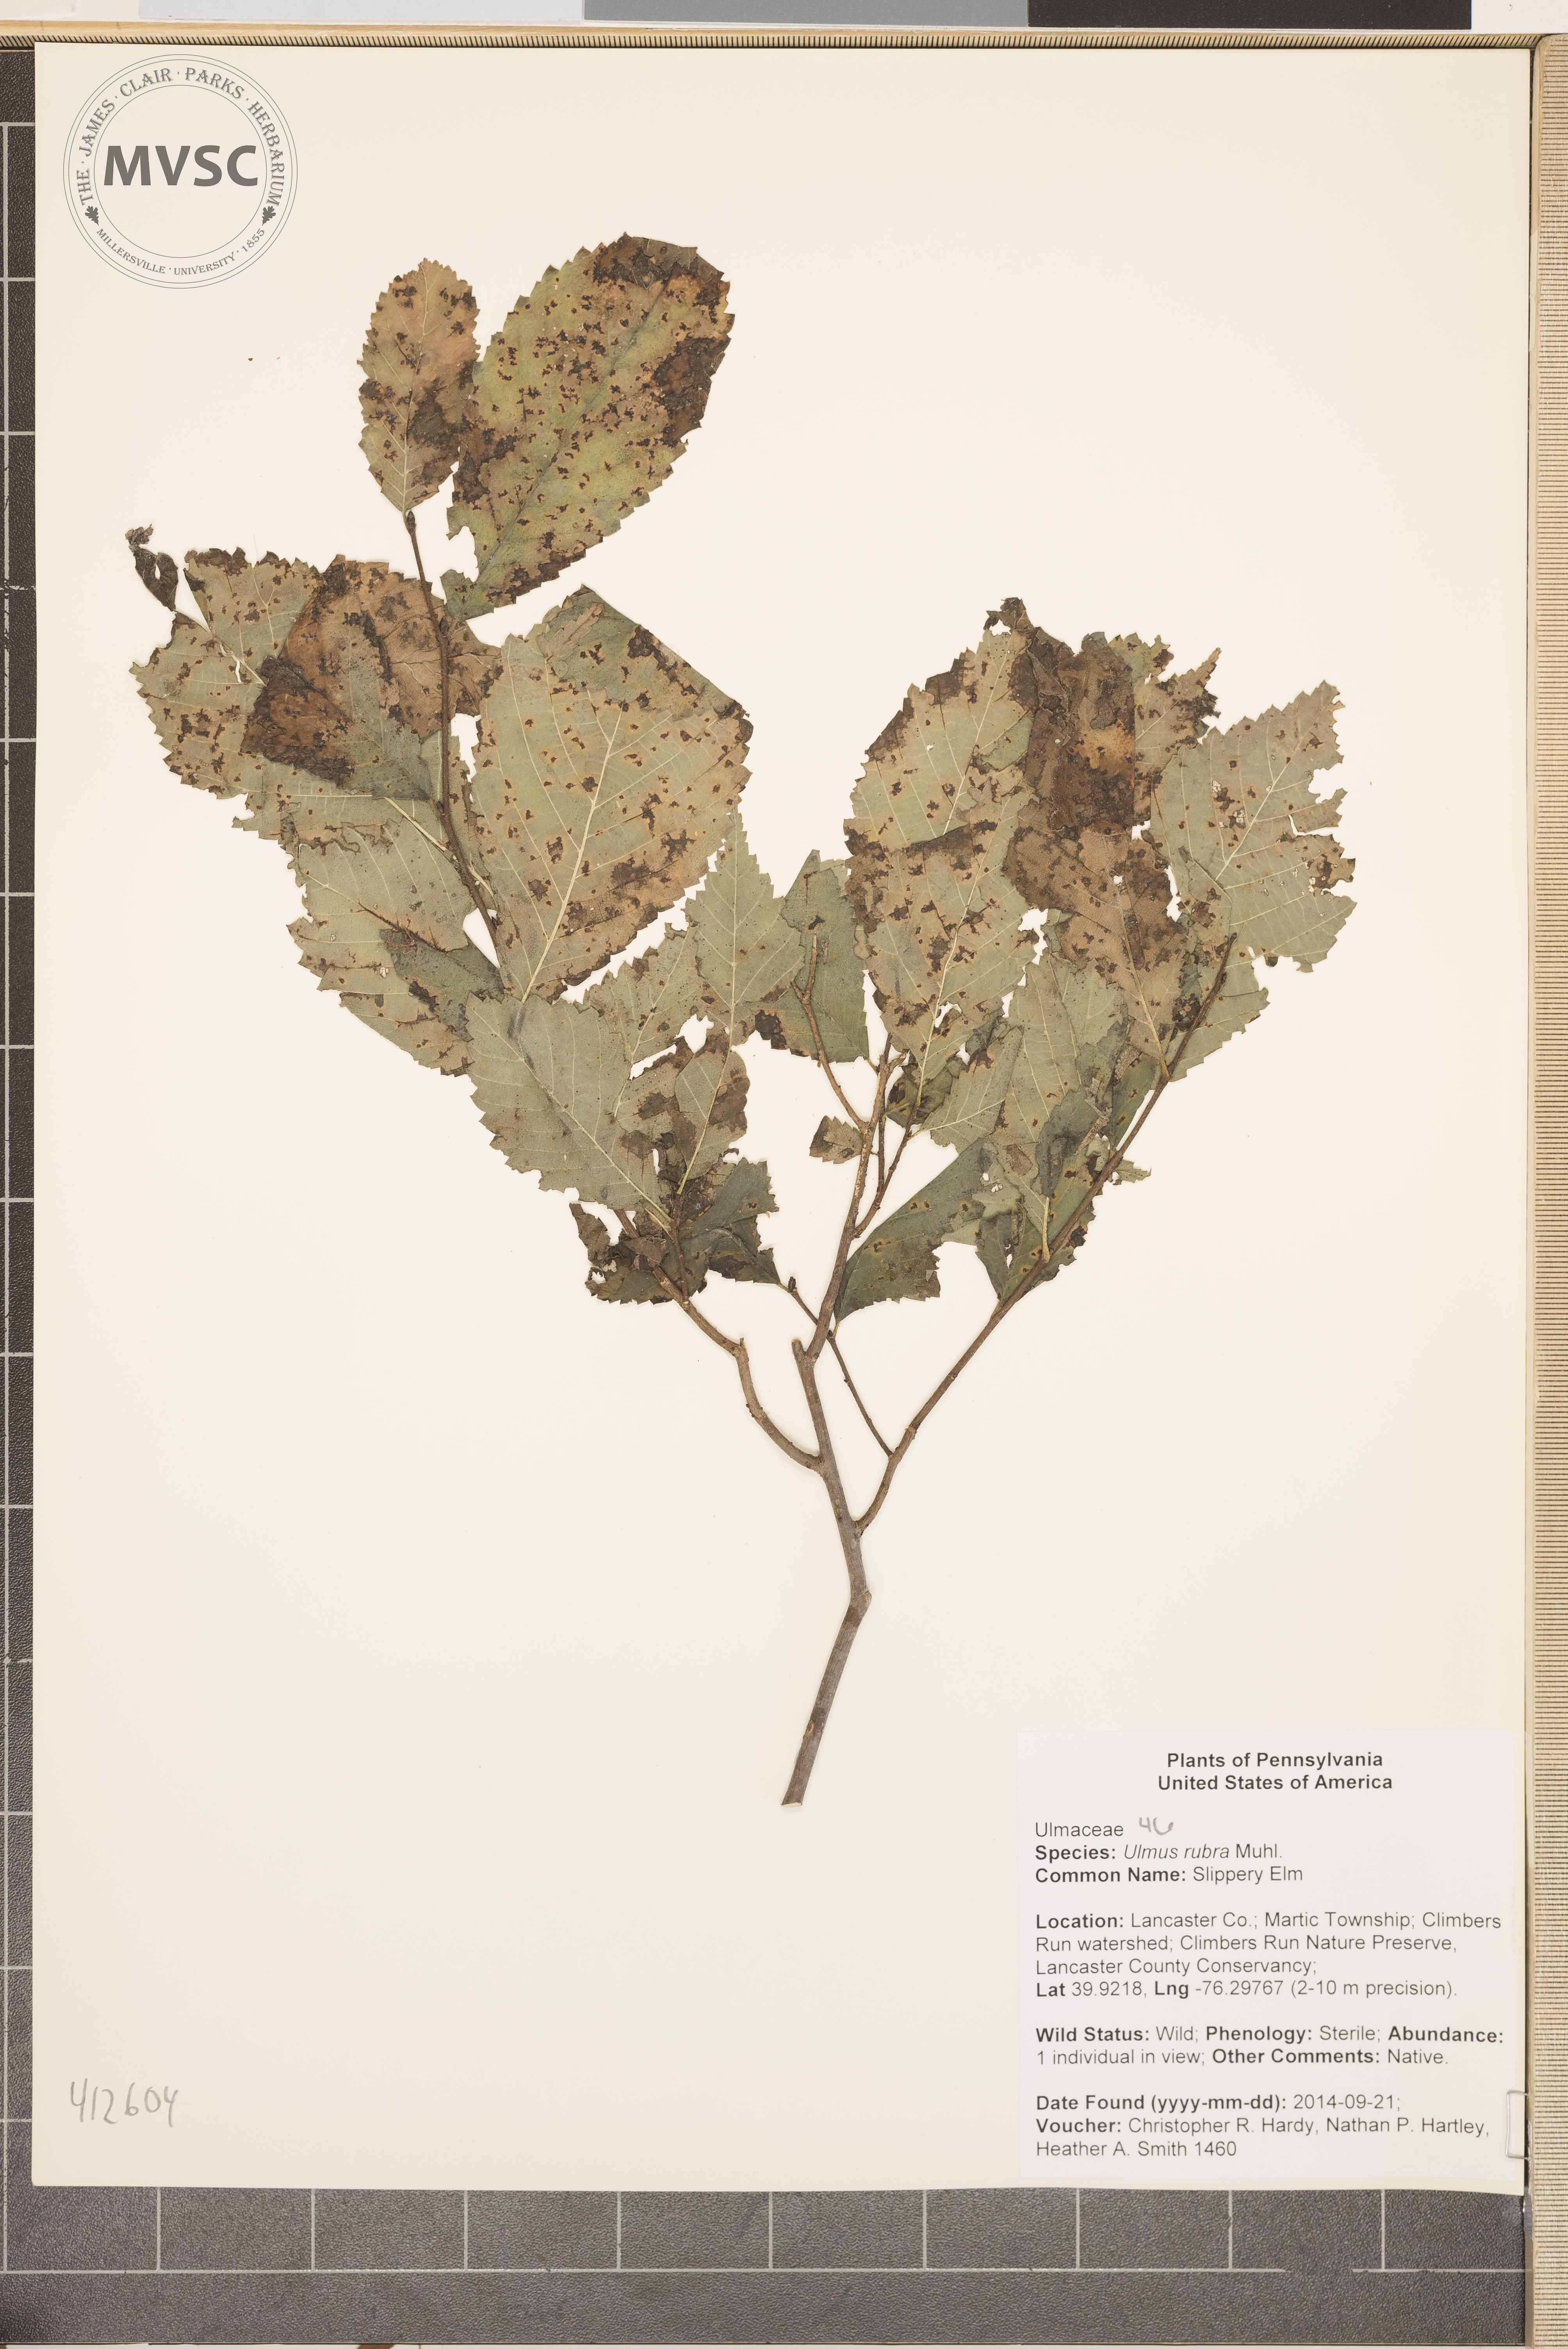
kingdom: Plantae
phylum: Tracheophyta
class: Magnoliopsida
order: Rosales
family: Ulmaceae
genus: Ulmus
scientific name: Ulmus rubra
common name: slippery elm
